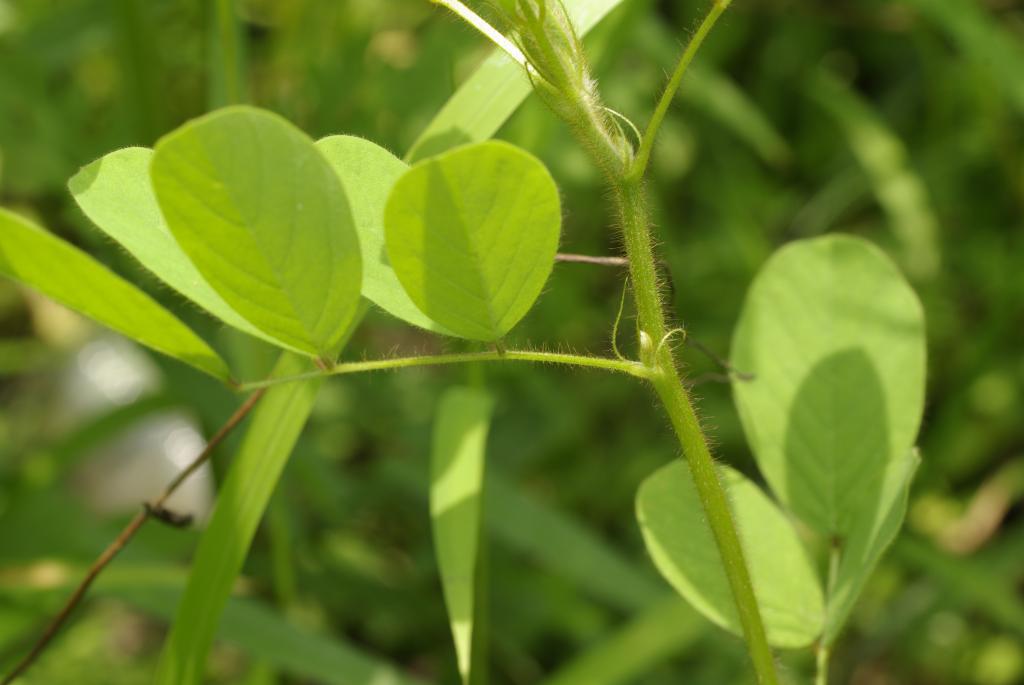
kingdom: Plantae
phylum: Tracheophyta
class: Magnoliopsida
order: Fabales
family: Fabaceae
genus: Indigofera
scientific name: Indigofera hirsuta
